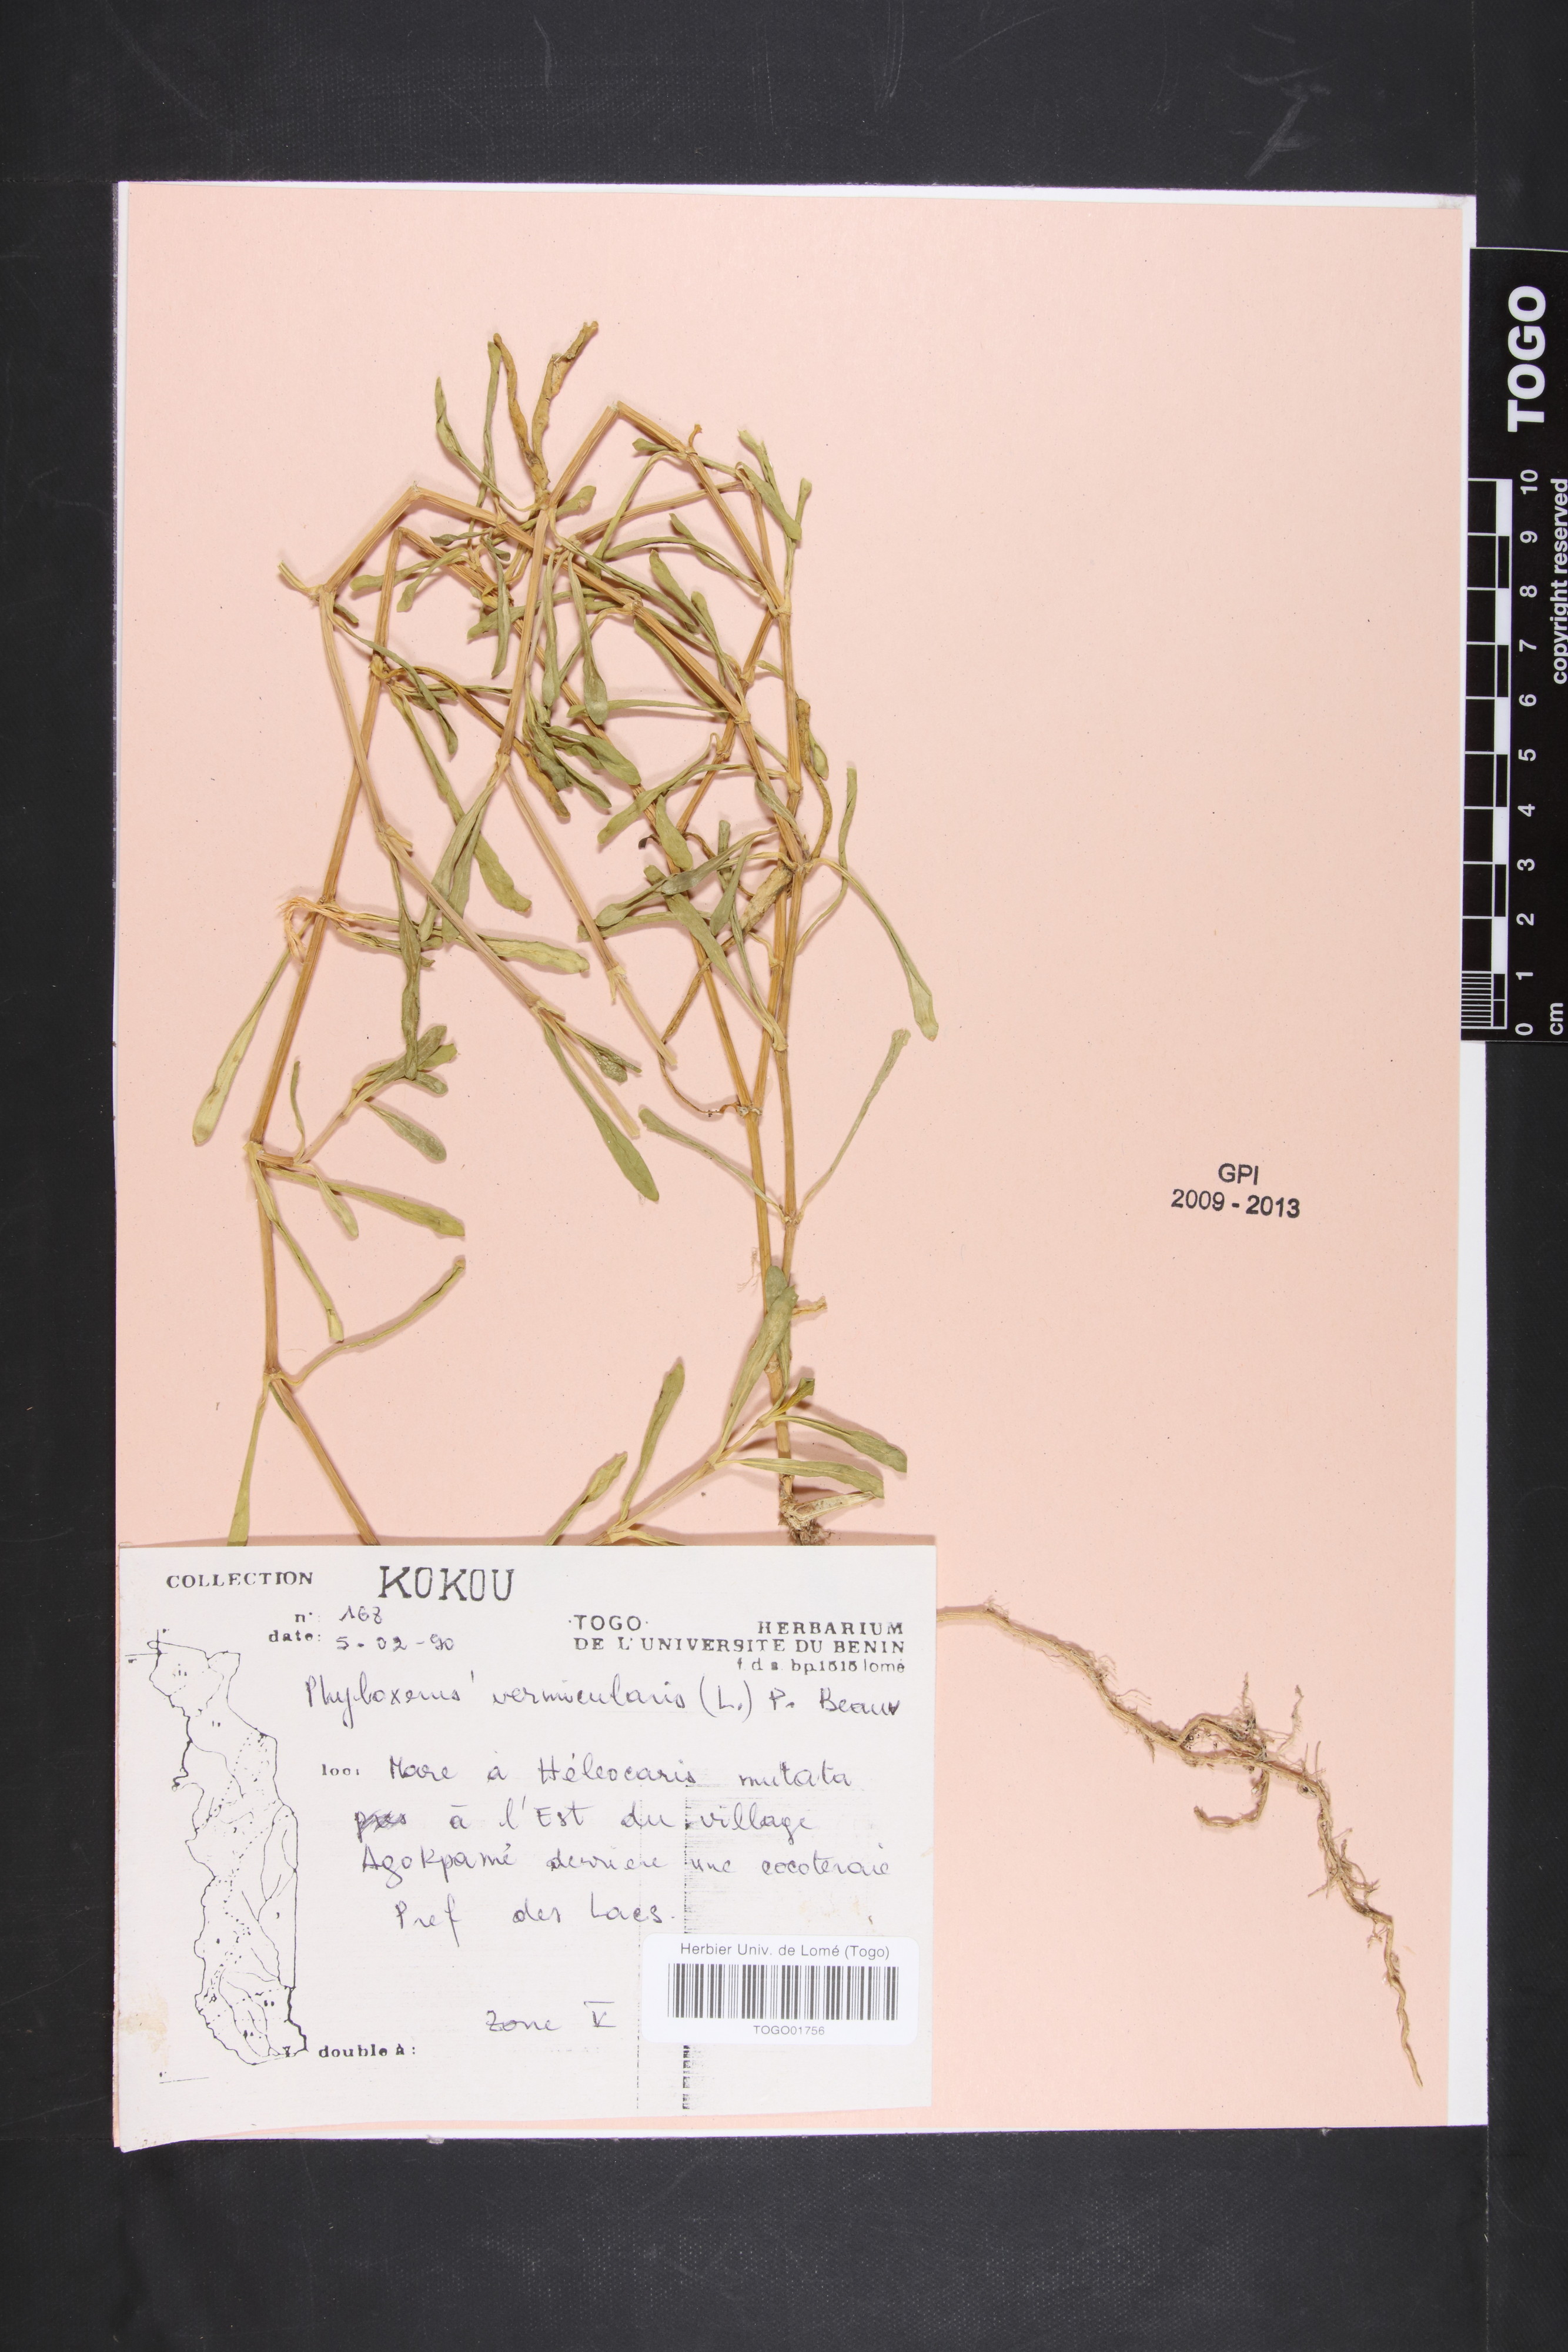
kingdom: Plantae
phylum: Tracheophyta
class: Magnoliopsida
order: Caryophyllales
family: Amaranthaceae
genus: Gomphrena
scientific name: Gomphrena vermicularis
